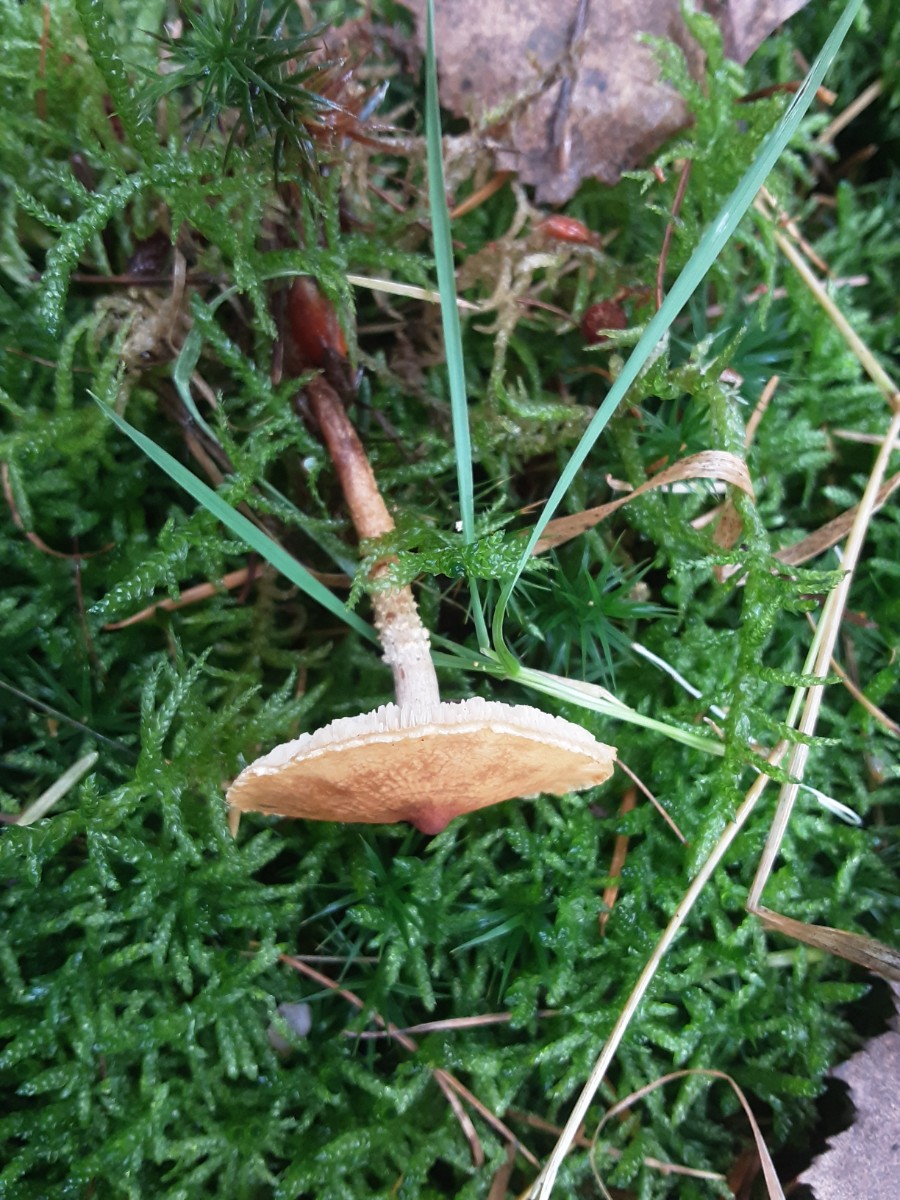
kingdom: Fungi
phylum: Basidiomycota
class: Agaricomycetes
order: Agaricales
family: Tricholomataceae
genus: Cystoderma
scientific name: Cystoderma amianthinum
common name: okkergul grynhat
